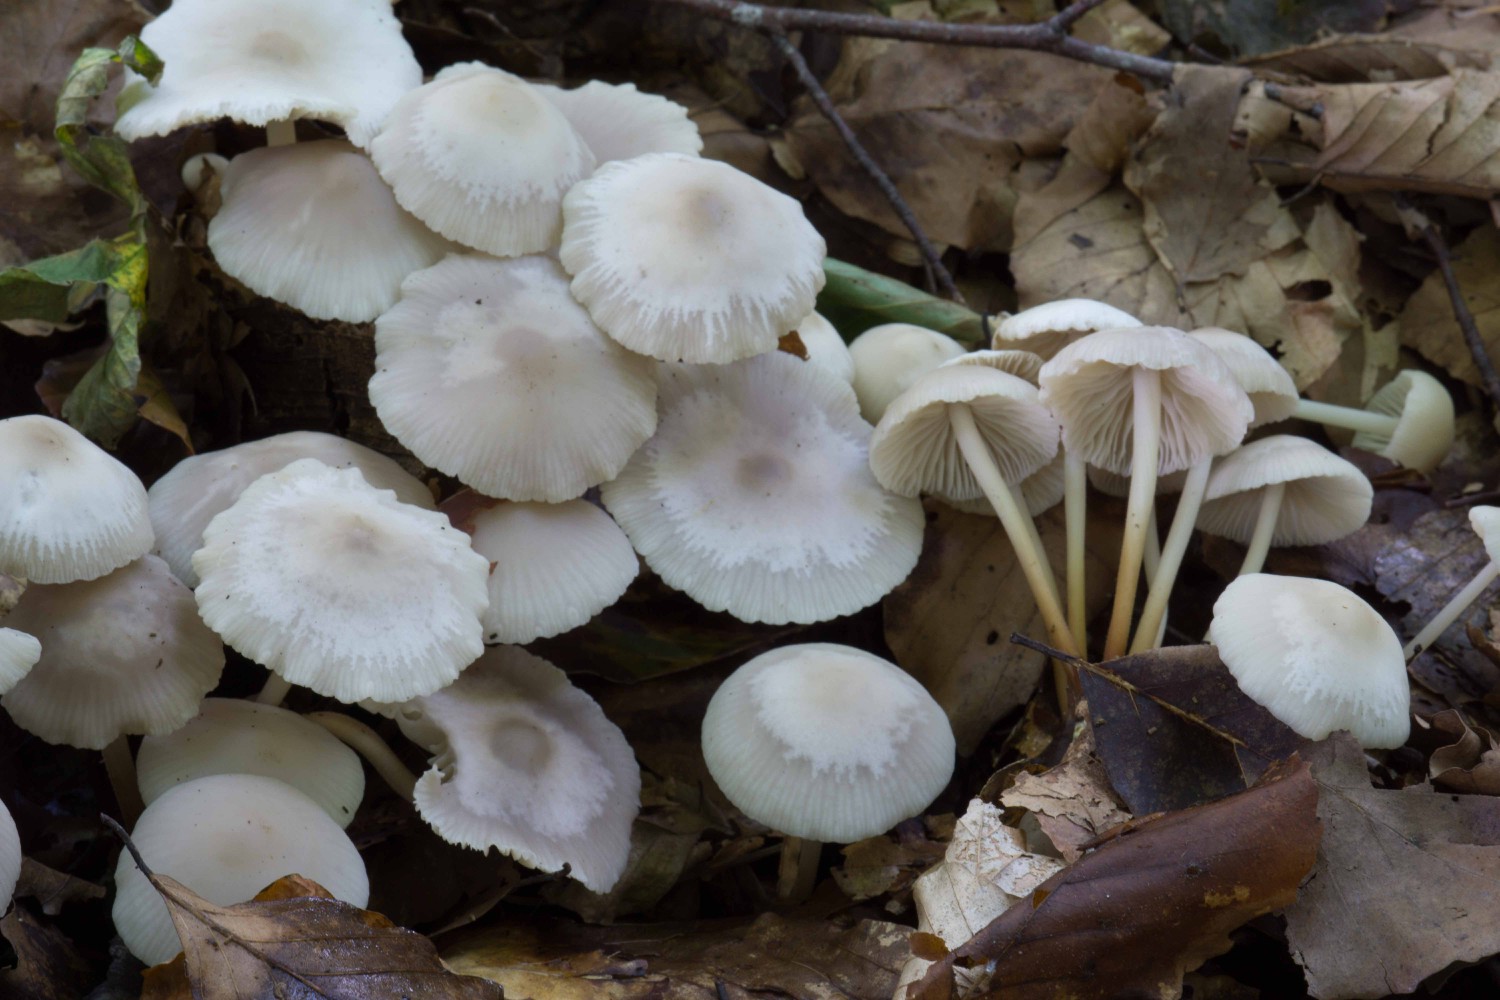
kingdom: Fungi
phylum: Basidiomycota
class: Agaricomycetes
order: Agaricales
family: Marasmiaceae
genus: Marasmius
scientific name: Marasmius wynneae
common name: hvælvet bruskhat
